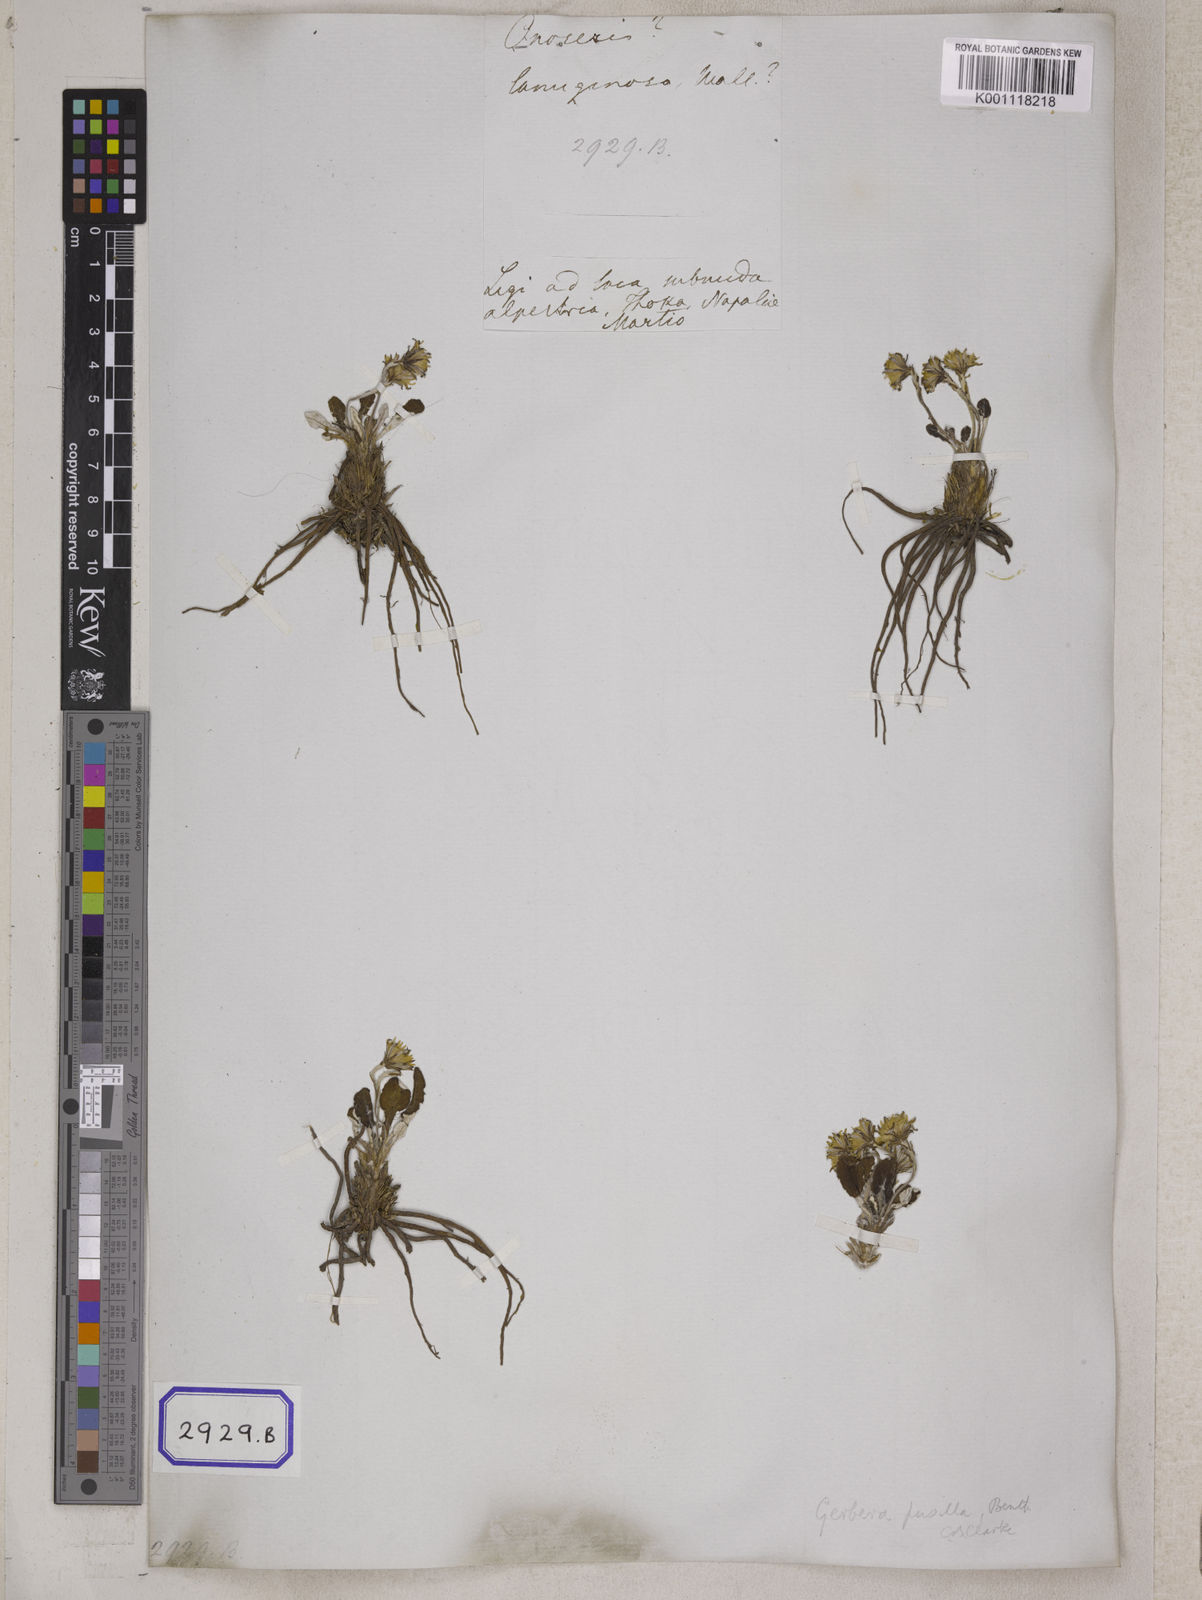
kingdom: Plantae
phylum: Tracheophyta
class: Magnoliopsida
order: Asterales
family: Asteraceae
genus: Onoseris
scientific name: Onoseris lanuginosa
